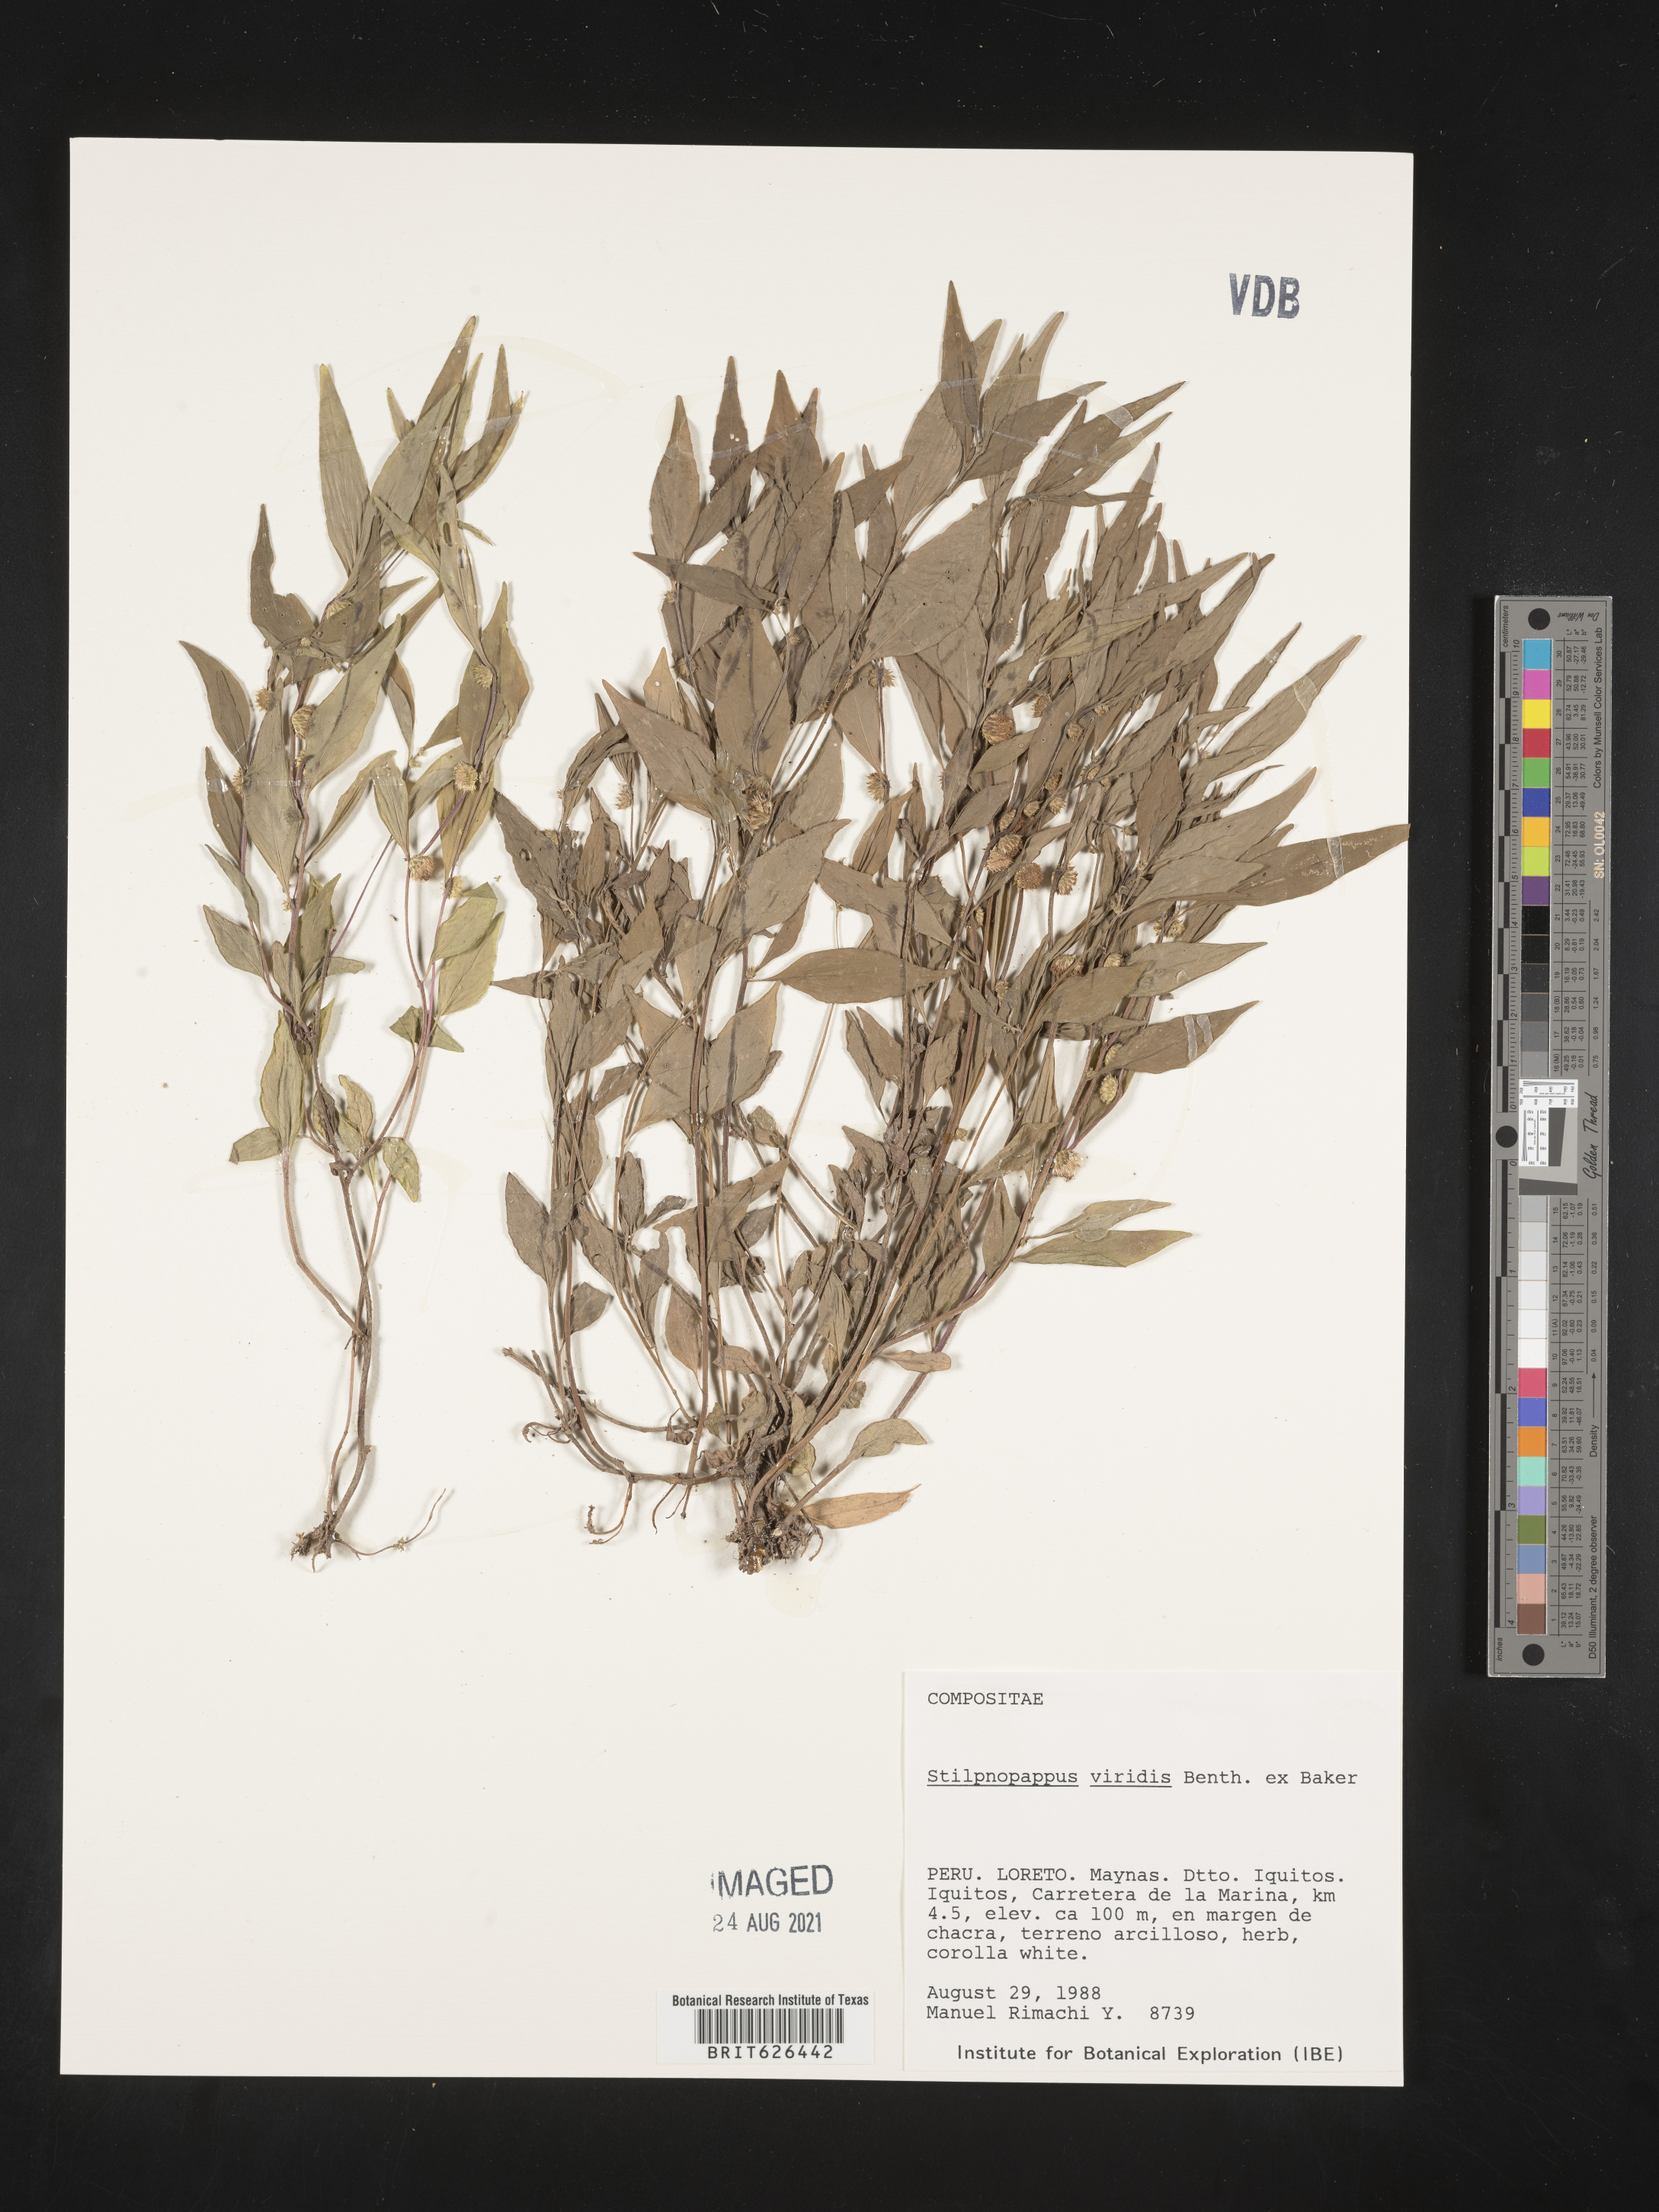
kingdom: Plantae
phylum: Tracheophyta
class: Magnoliopsida
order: Asterales
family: Asteraceae
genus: Xiphochaeta
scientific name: Xiphochaeta aquatica
